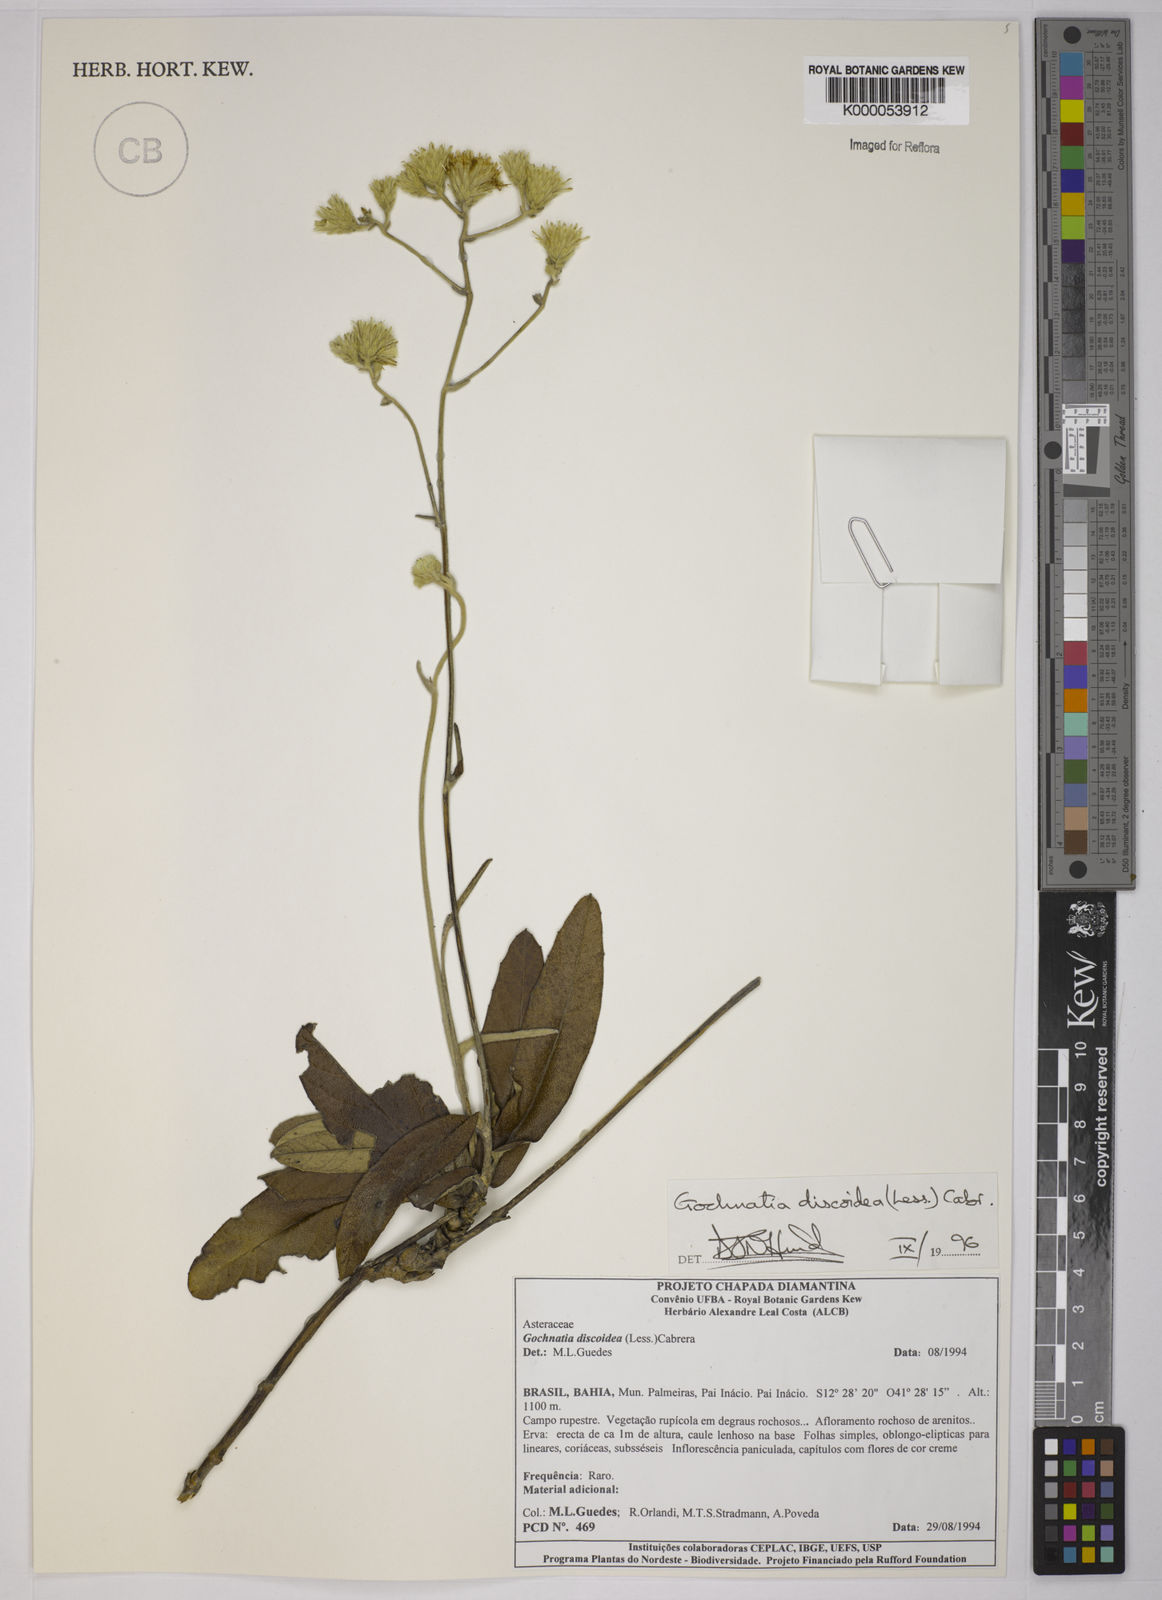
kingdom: Plantae
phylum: Tracheophyta
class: Magnoliopsida
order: Asterales
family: Asteraceae
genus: Richterago
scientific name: Richterago discoidea
